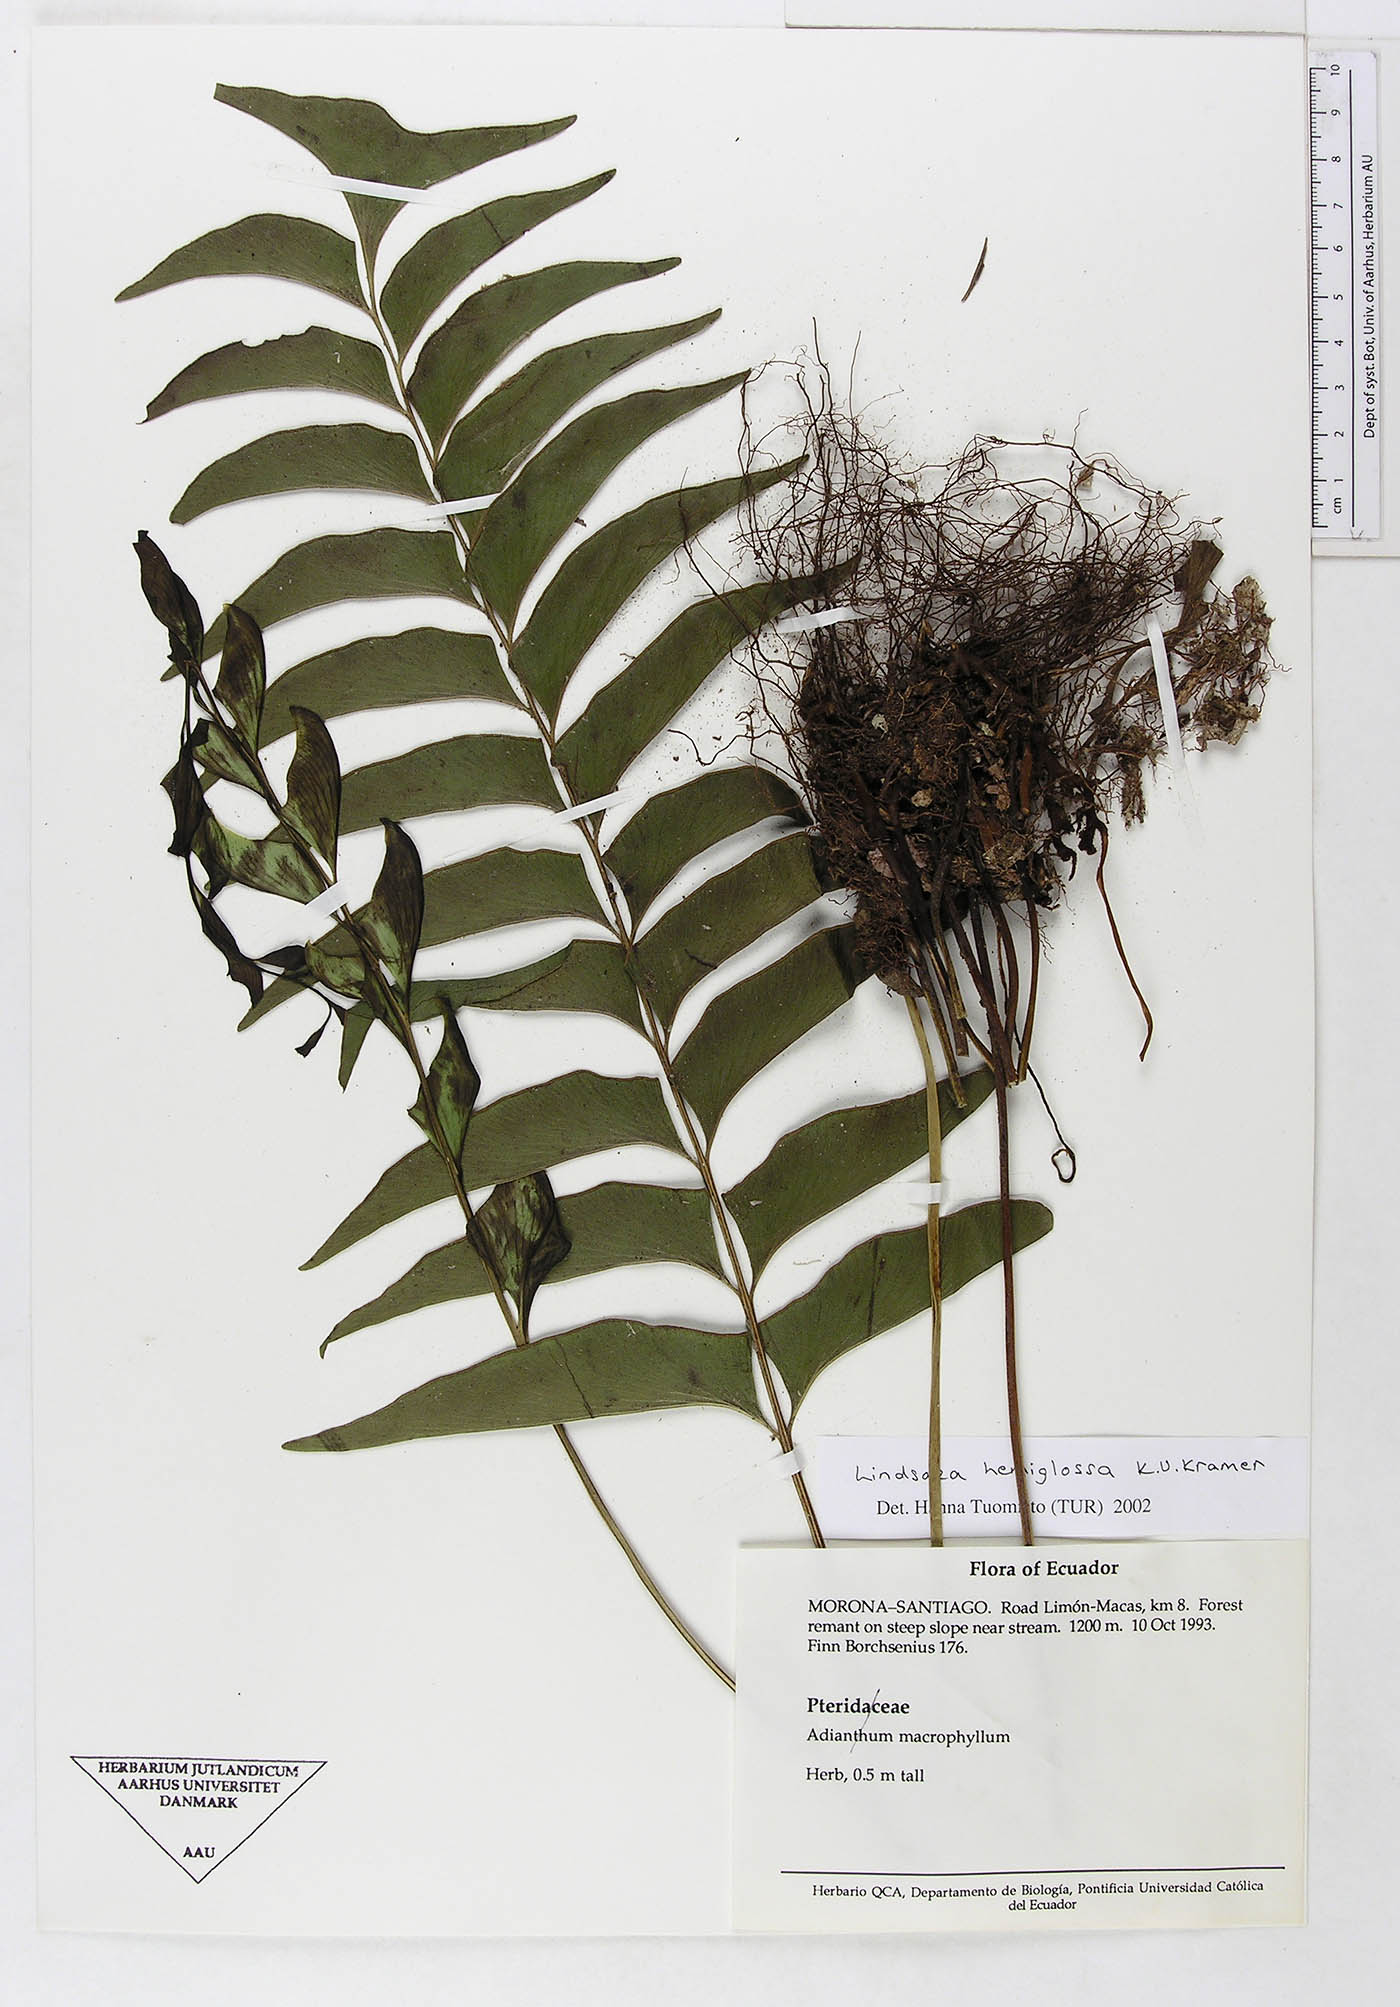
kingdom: Plantae
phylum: Tracheophyta
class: Polypodiopsida
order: Polypodiales
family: Lindsaeaceae
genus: Lindsaea
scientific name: Lindsaea hemiglossa
